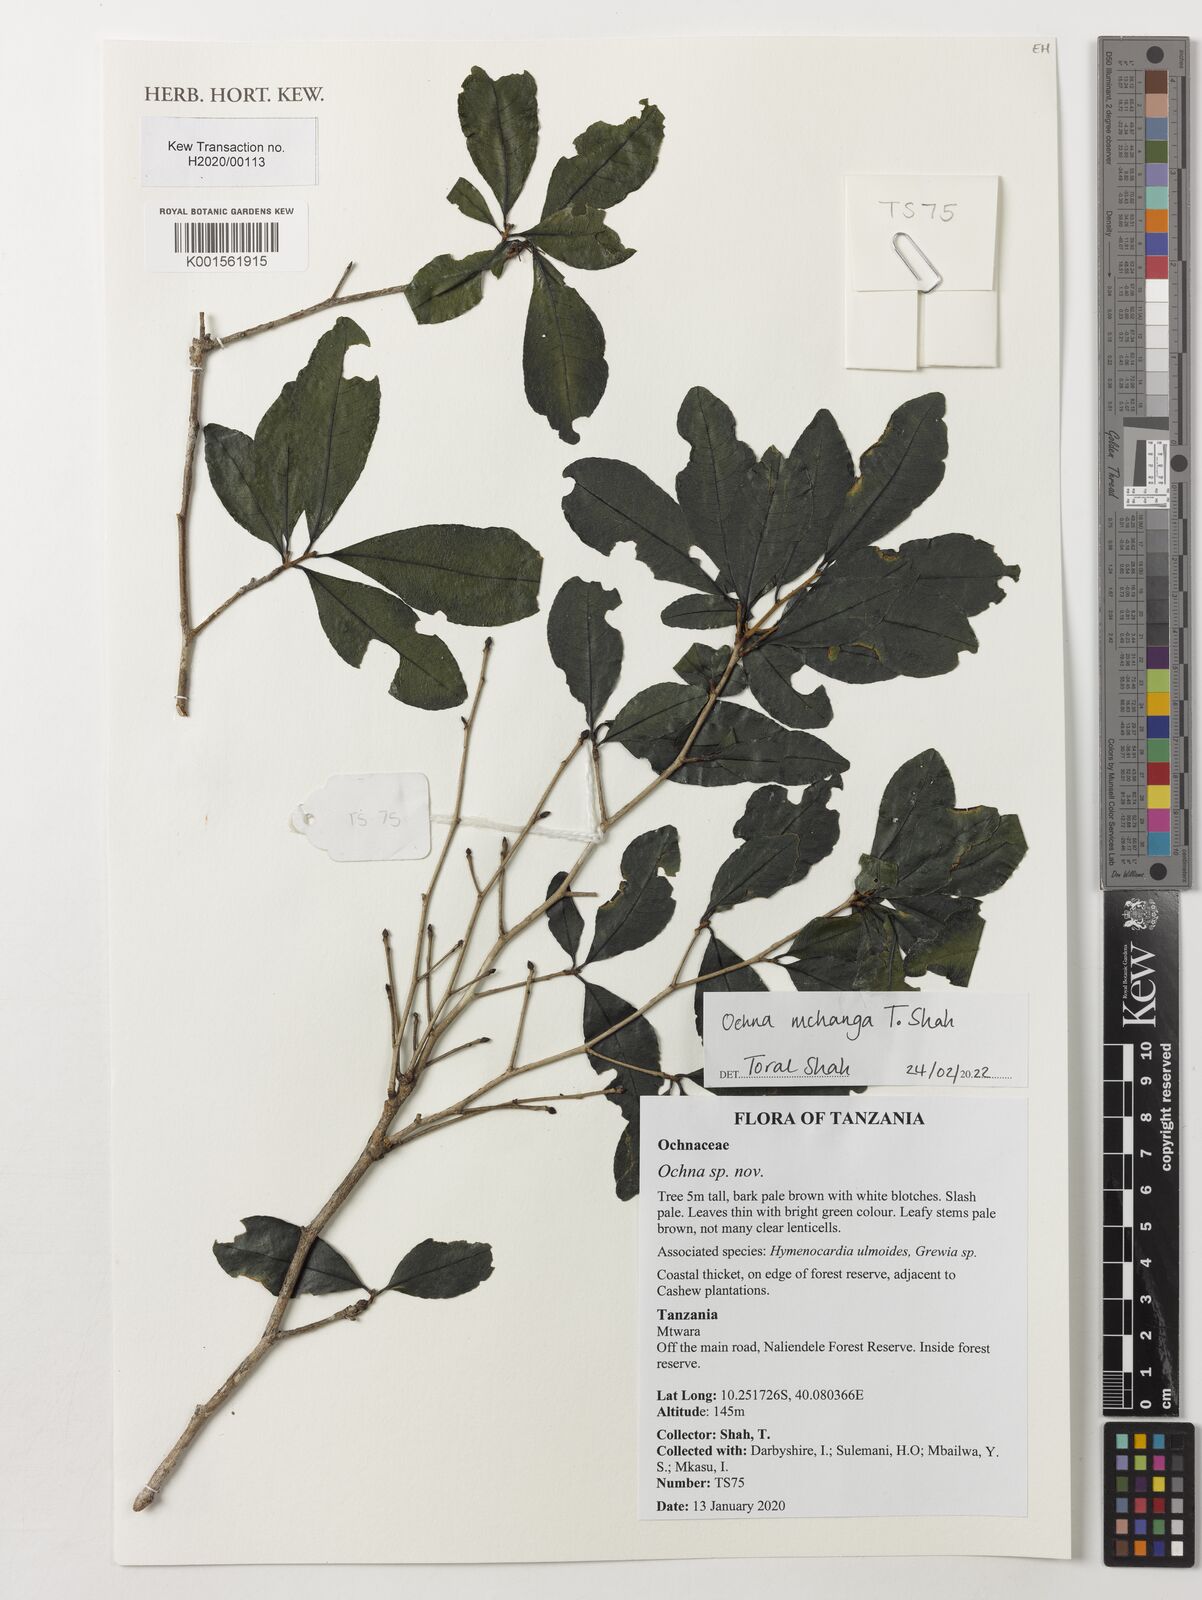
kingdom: Plantae
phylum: Tracheophyta
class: Magnoliopsida
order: Malpighiales
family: Ochnaceae
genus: Ochna
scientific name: Ochna
